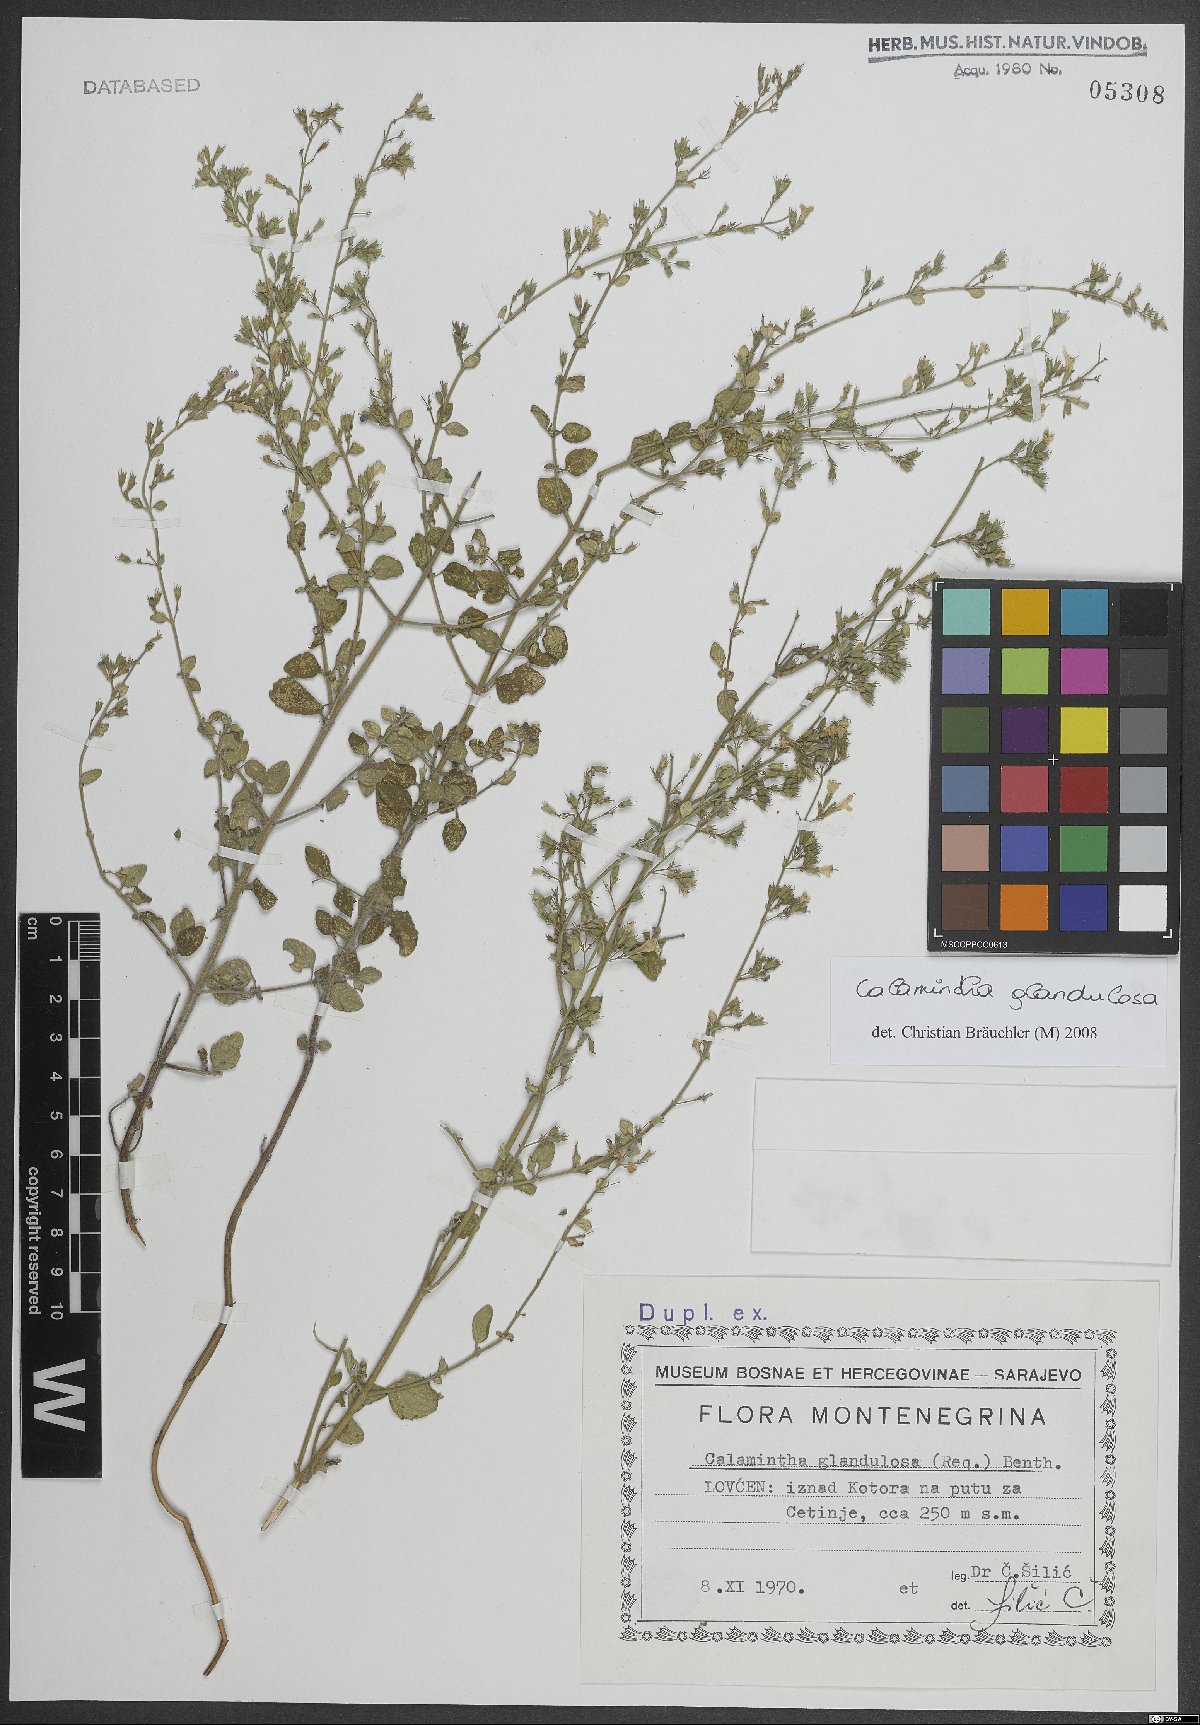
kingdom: Plantae
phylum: Tracheophyta
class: Magnoliopsida
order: Lamiales
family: Lamiaceae
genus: Clinopodium
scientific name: Clinopodium nepeta
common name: Lesser calamint
